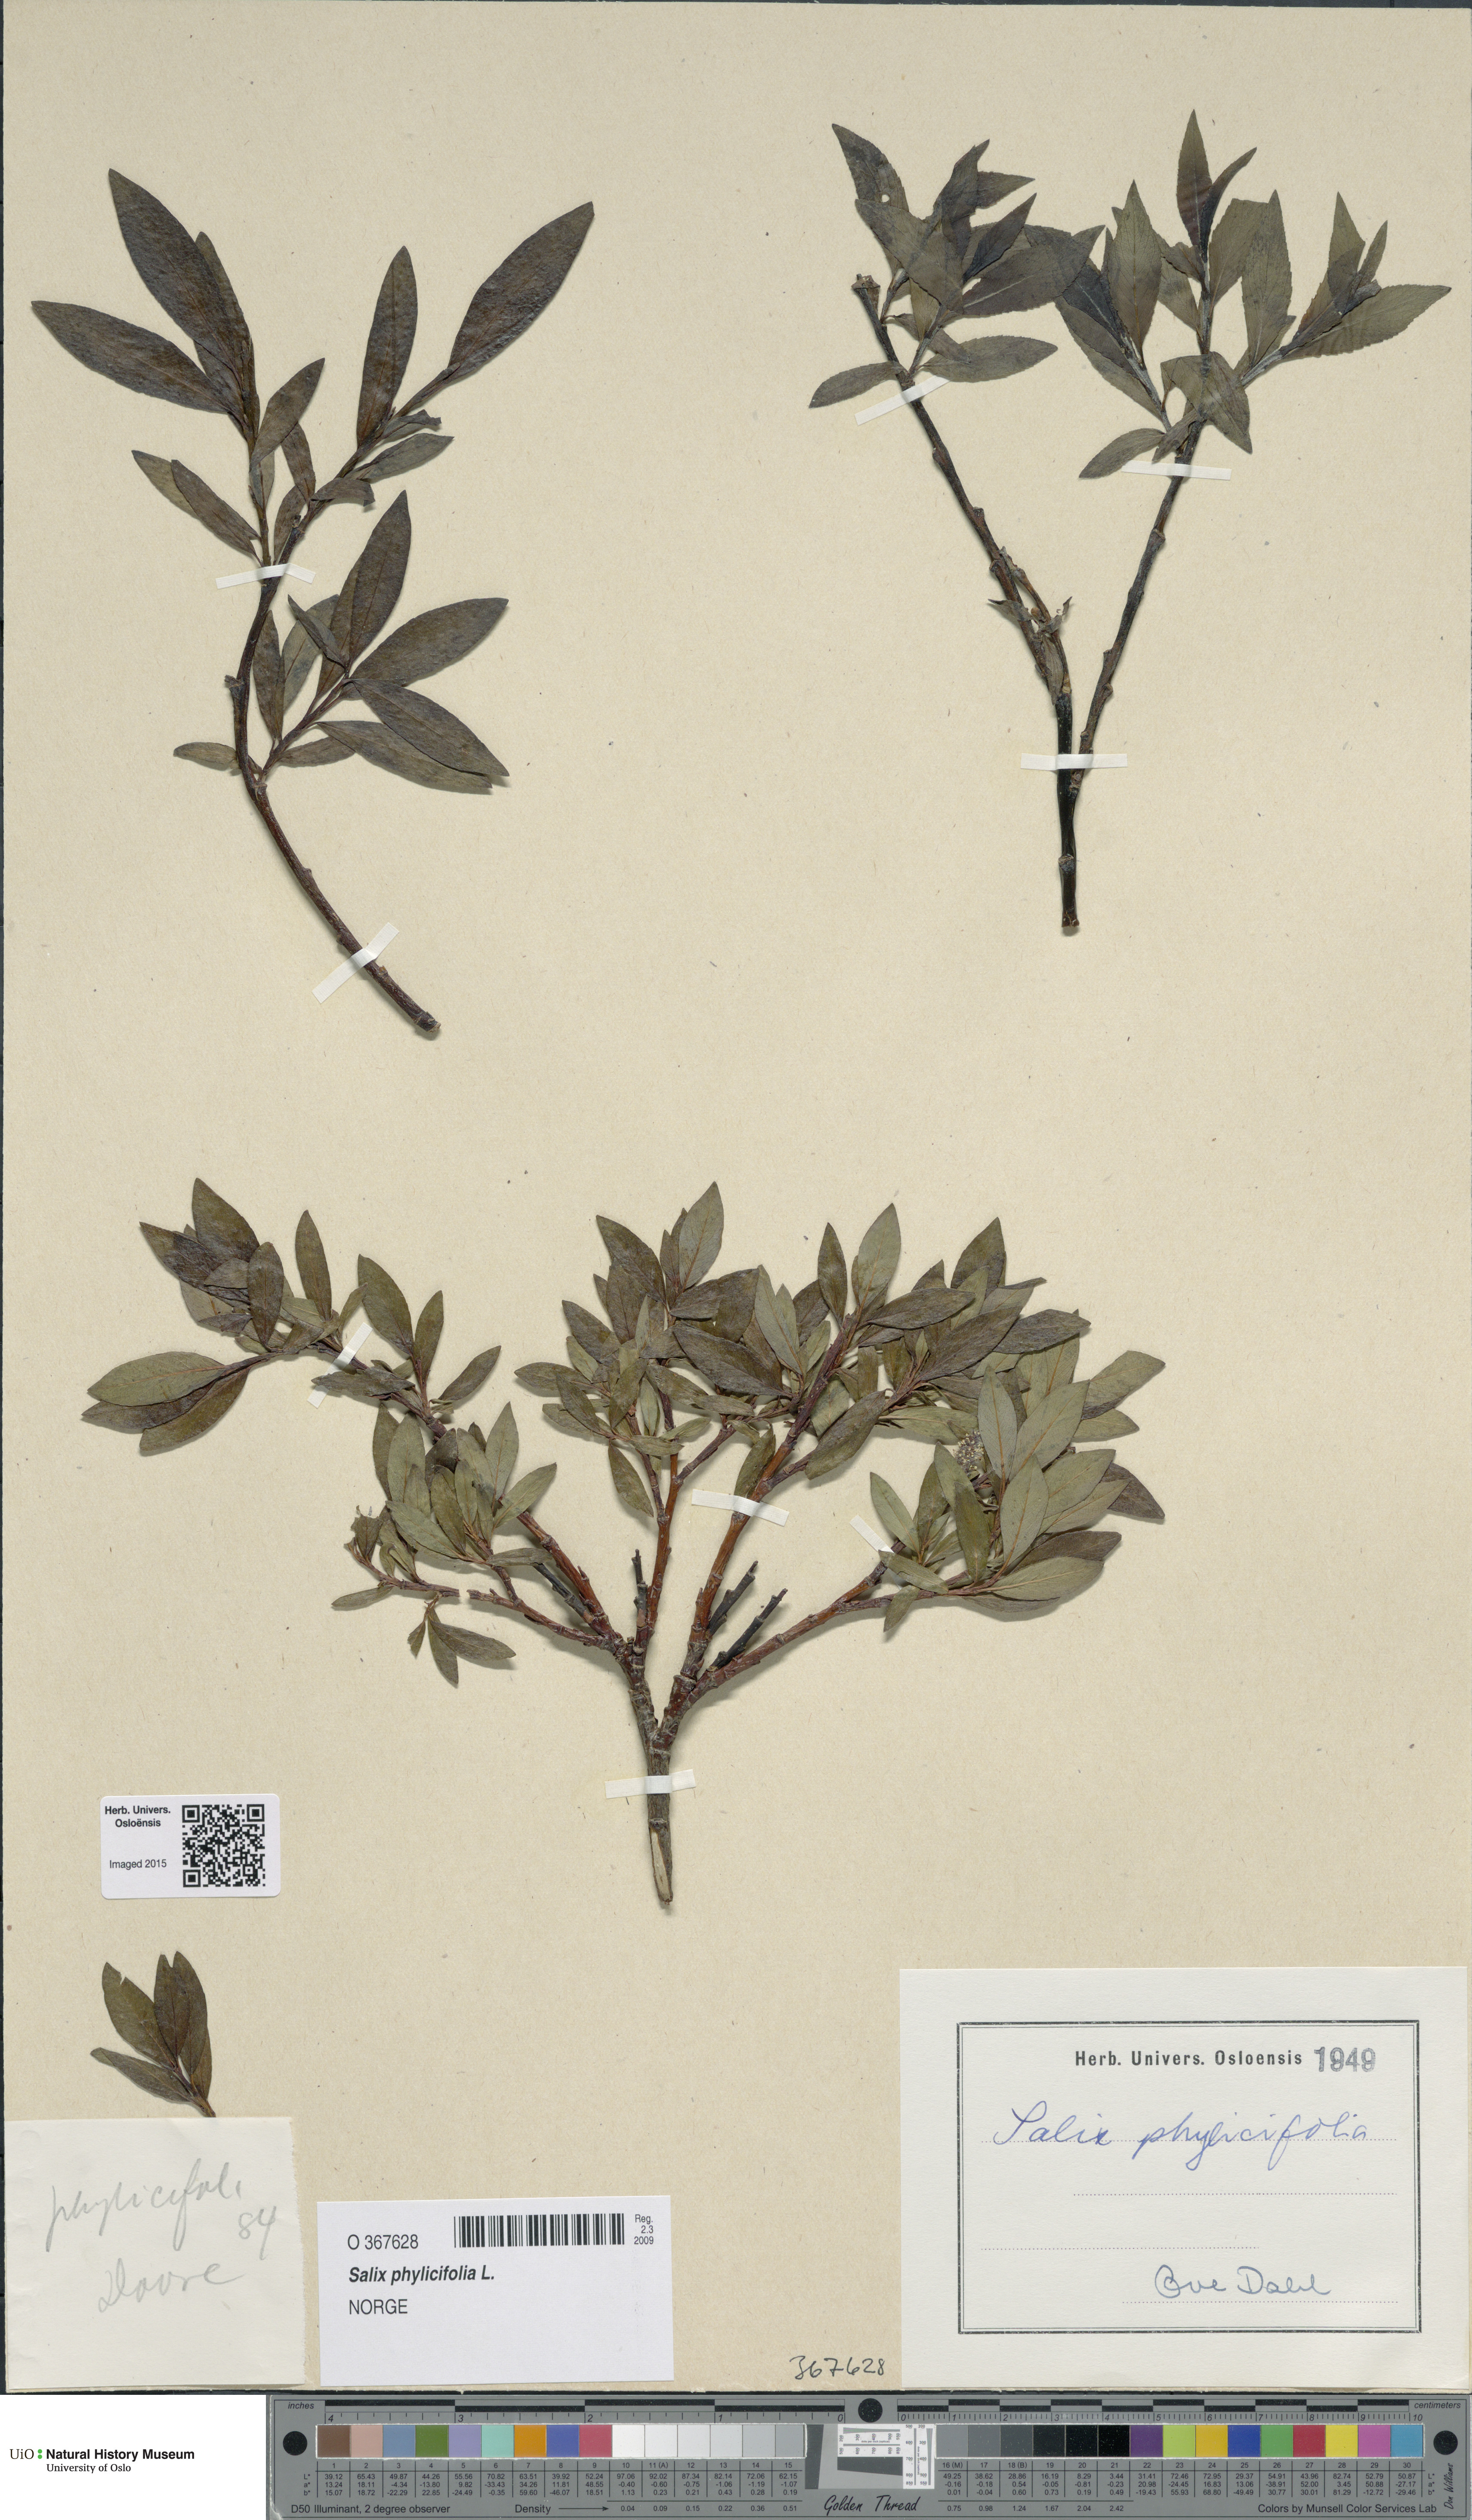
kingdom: Plantae
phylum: Tracheophyta
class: Magnoliopsida
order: Malpighiales
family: Salicaceae
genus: Salix
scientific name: Salix phylicifolia
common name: Tea-leaved willow
